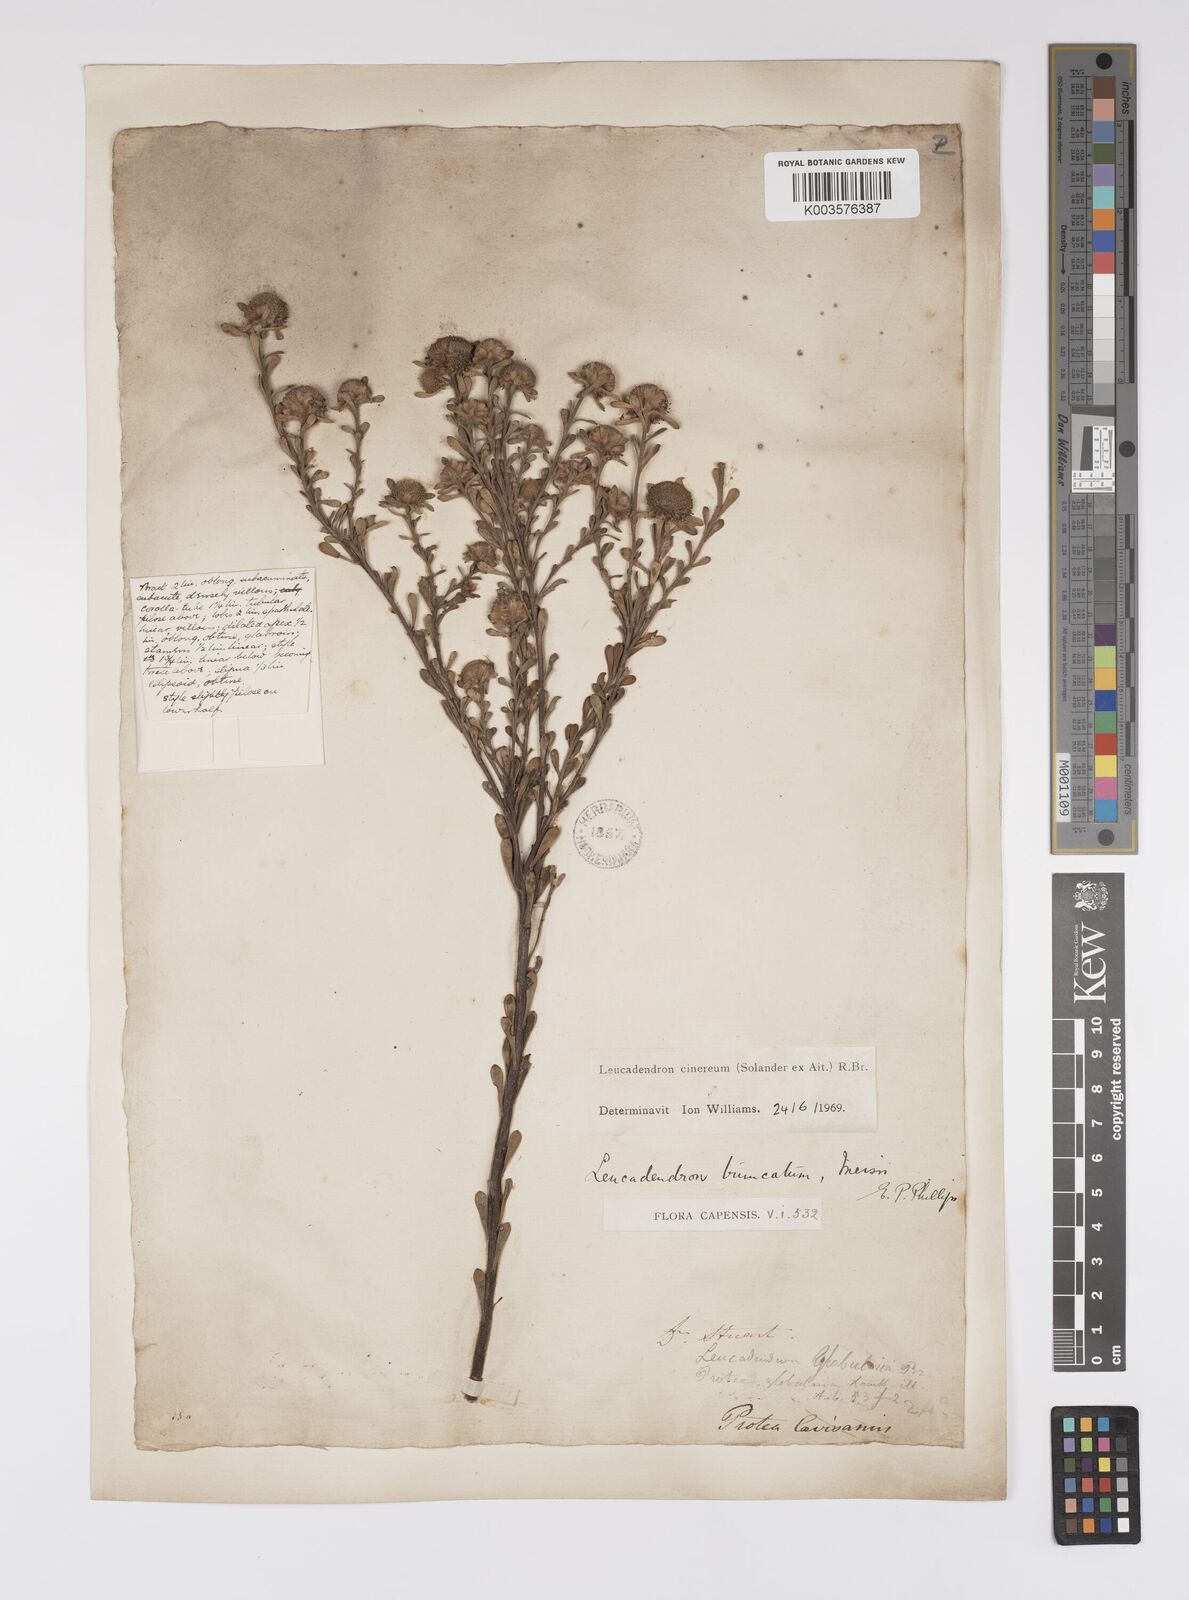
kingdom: Plantae
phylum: Tracheophyta
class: Magnoliopsida
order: Proteales
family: Proteaceae
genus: Leucadendron
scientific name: Leucadendron cinereum
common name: Scraggly conebush
